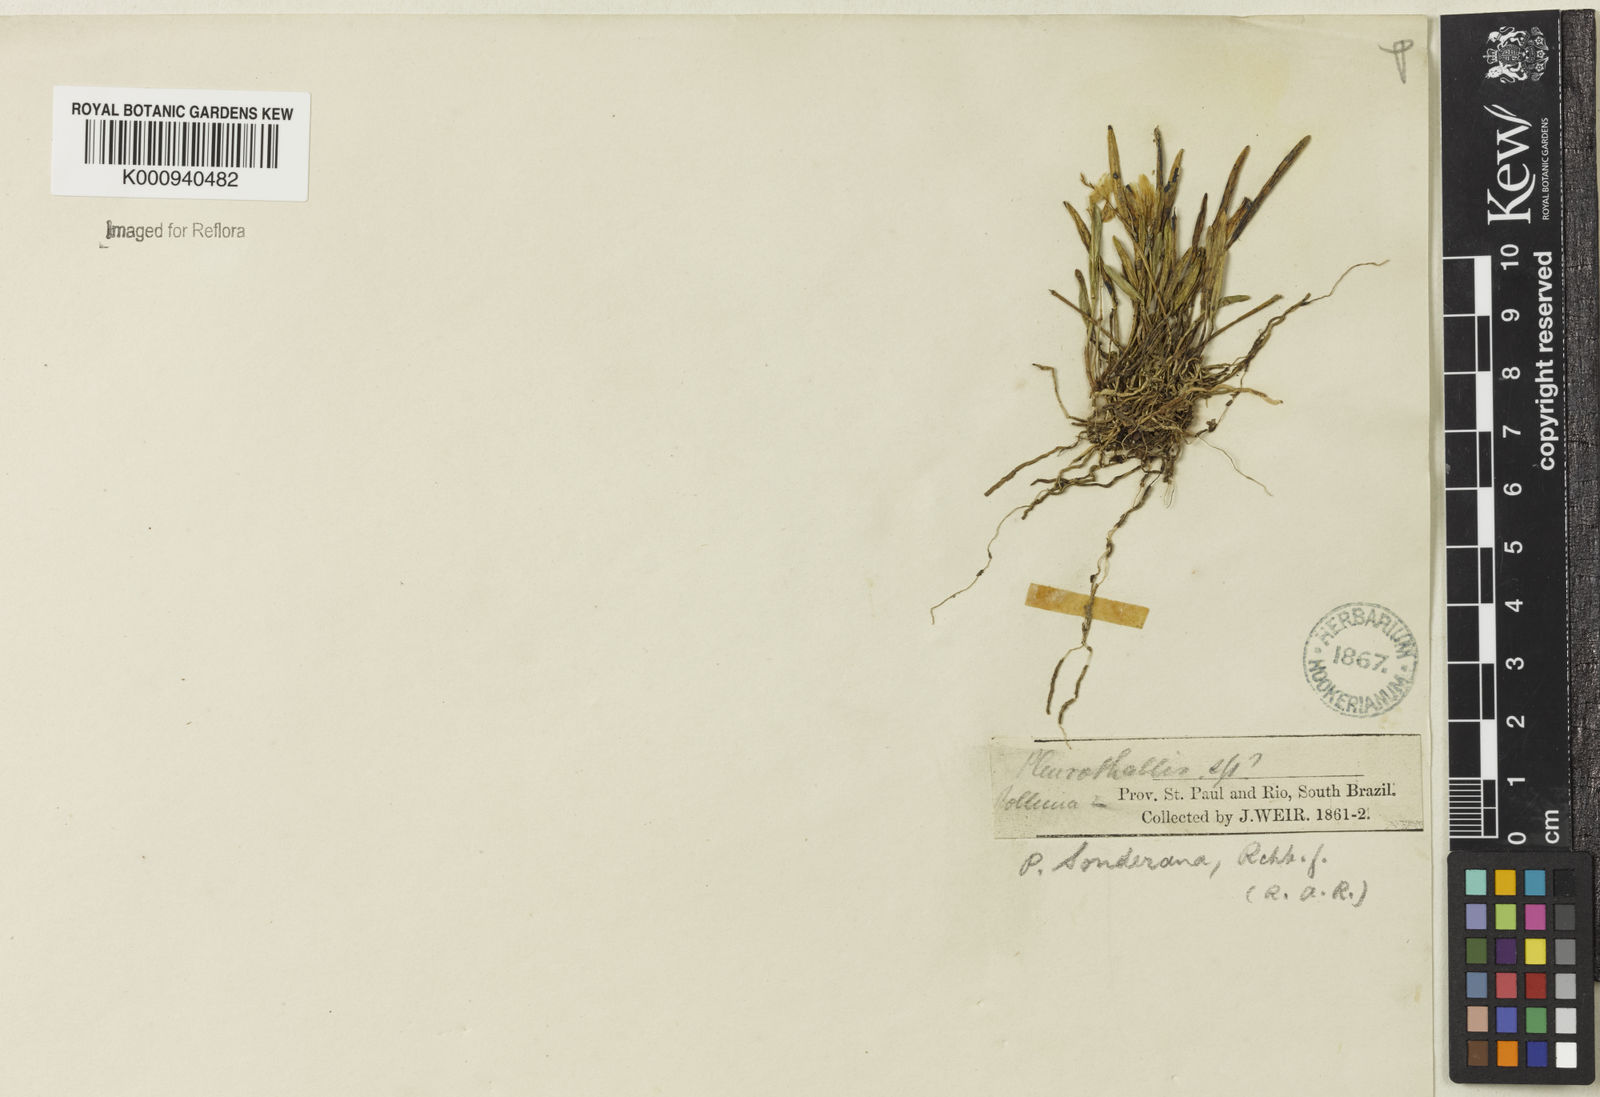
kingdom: Plantae
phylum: Tracheophyta
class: Liliopsida
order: Asparagales
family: Orchidaceae
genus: Acianthera
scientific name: Acianthera sonderiana
